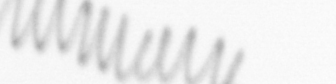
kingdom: Chromista
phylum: Ochrophyta
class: Bacillariophyceae
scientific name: Bacillariophyceae
